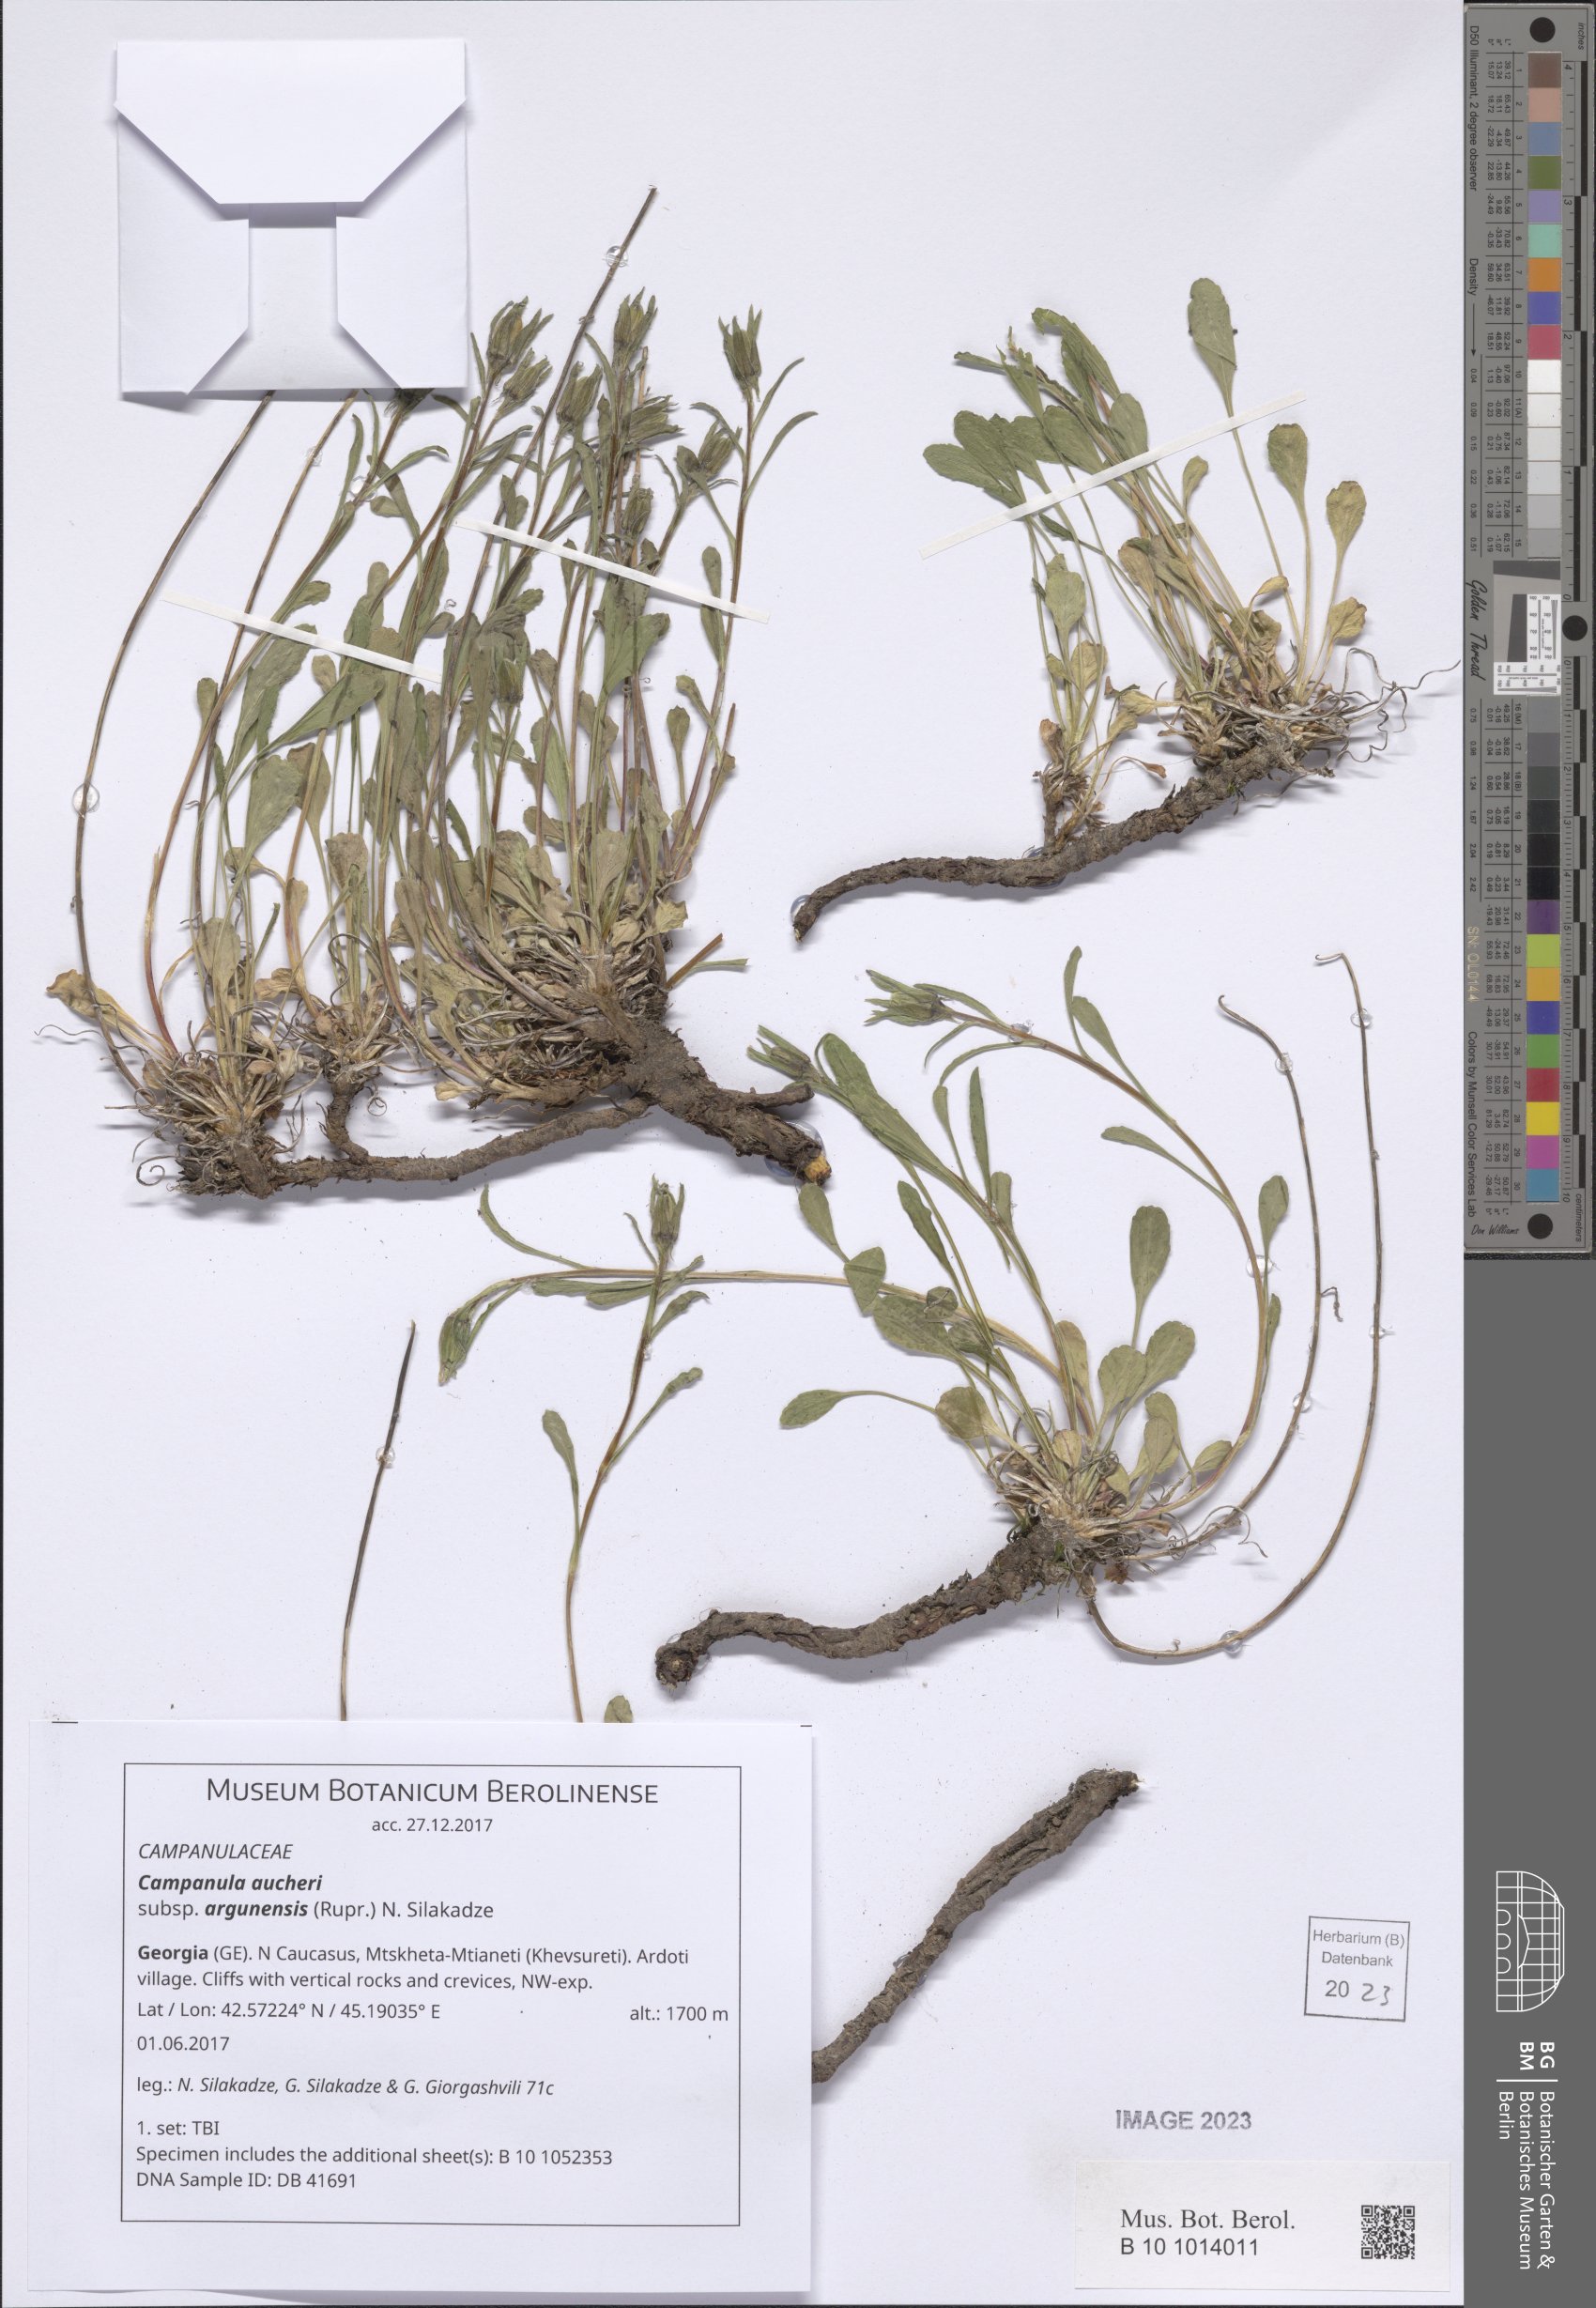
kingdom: Plantae
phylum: Tracheophyta
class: Magnoliopsida
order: Asterales
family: Campanulaceae
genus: Campanula
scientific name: Campanula saxifraga
